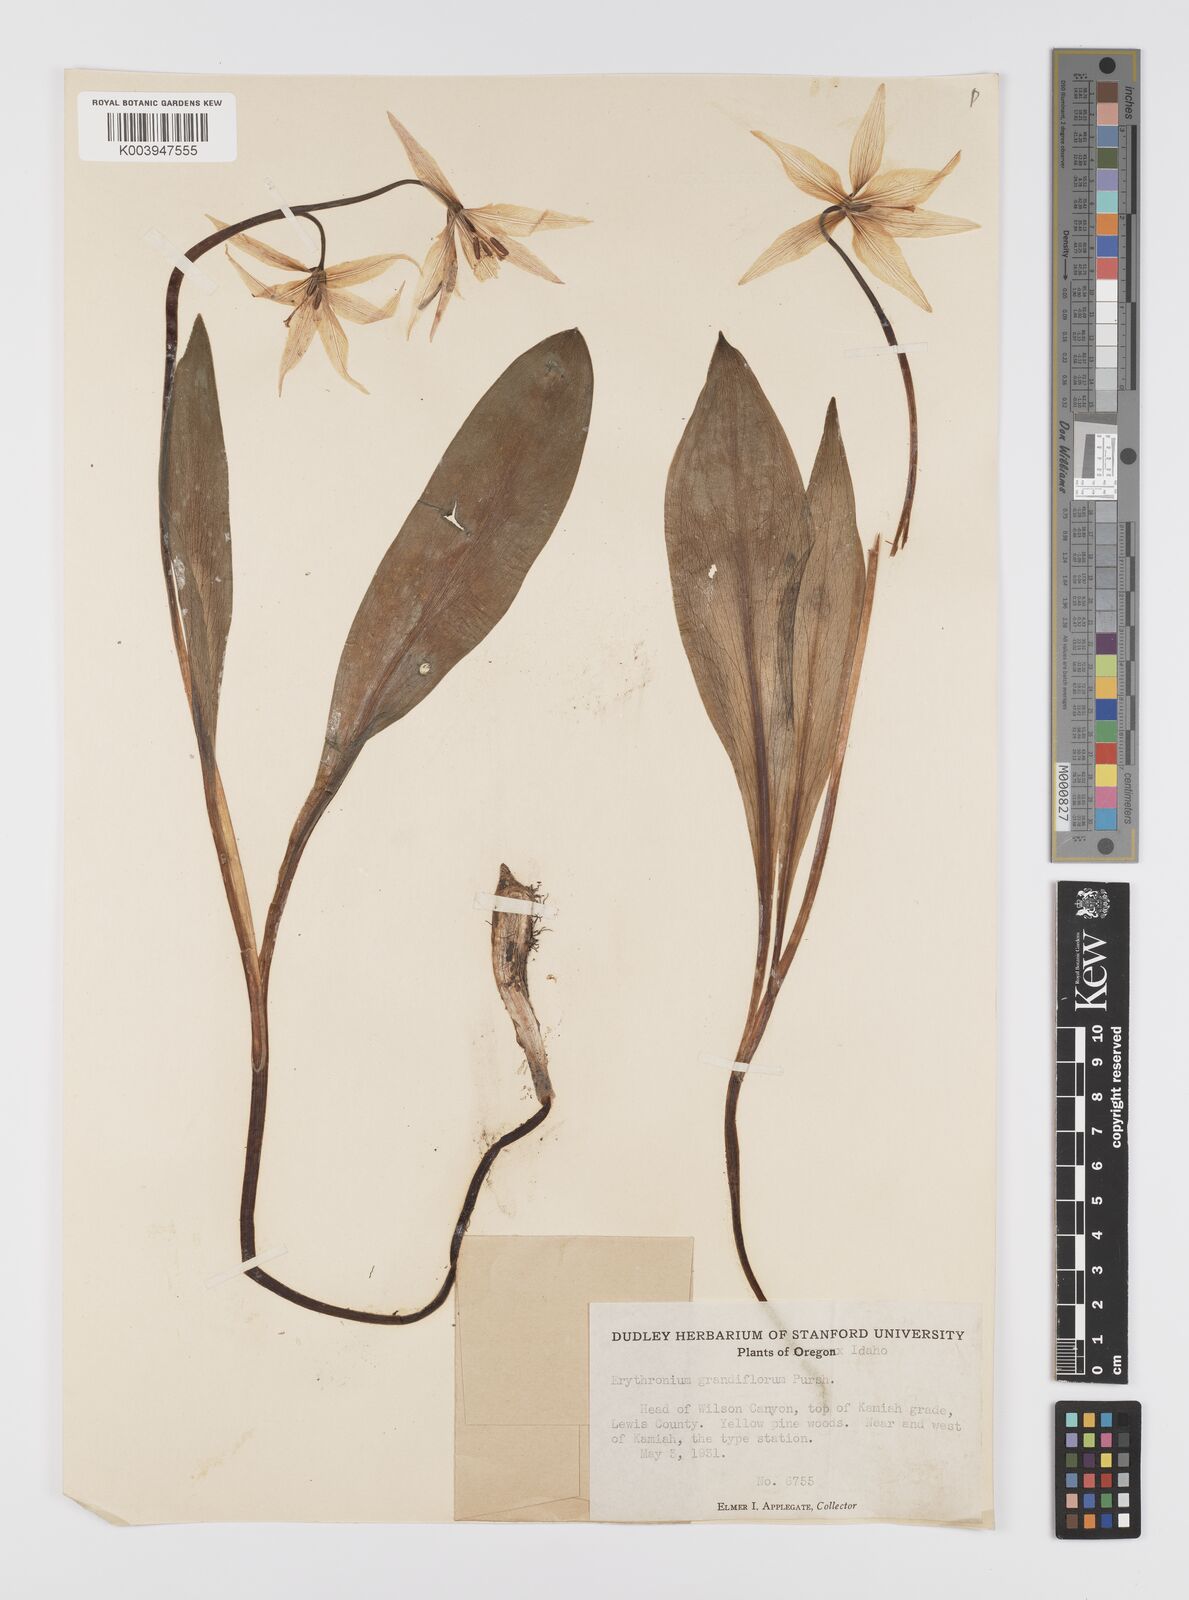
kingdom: Plantae
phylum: Tracheophyta
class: Liliopsida
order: Liliales
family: Liliaceae
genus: Erythronium
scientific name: Erythronium grandiflorum
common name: Avalanche-lily
